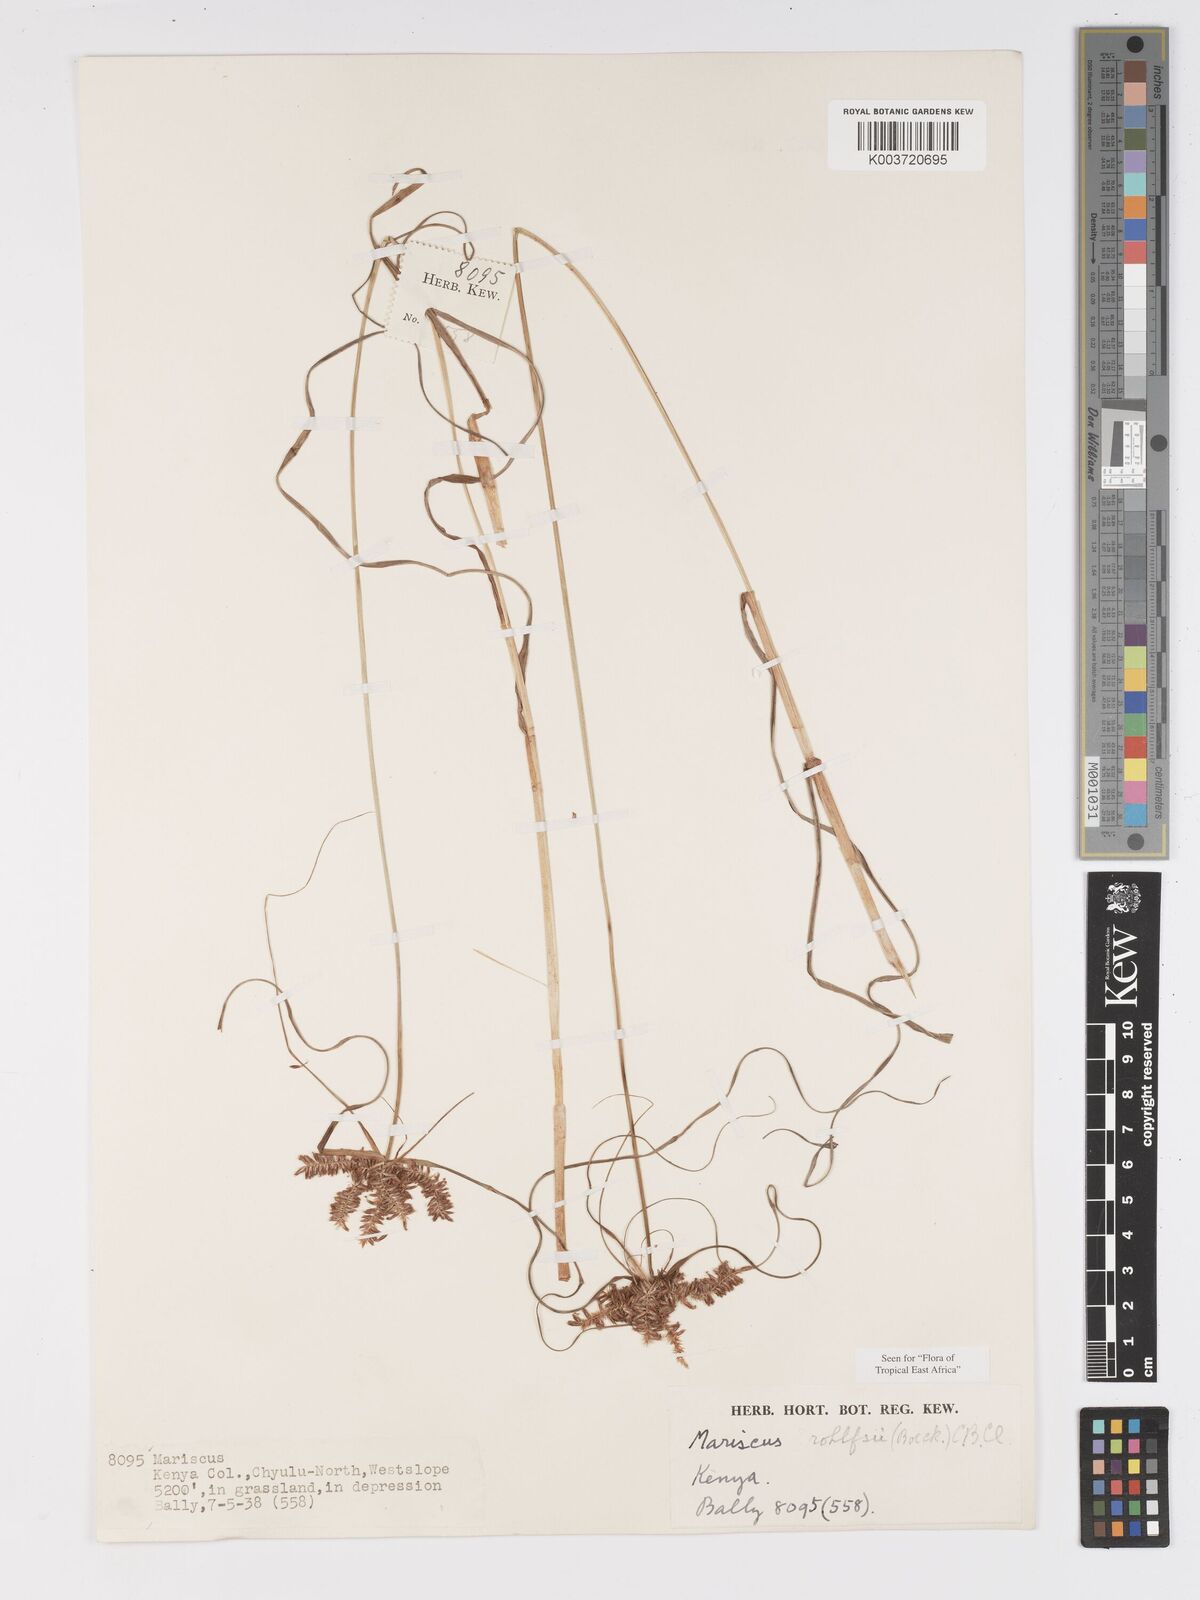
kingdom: Plantae
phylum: Tracheophyta
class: Liliopsida
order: Poales
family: Cyperaceae
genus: Cyperus
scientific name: Cyperus rohlfsii
